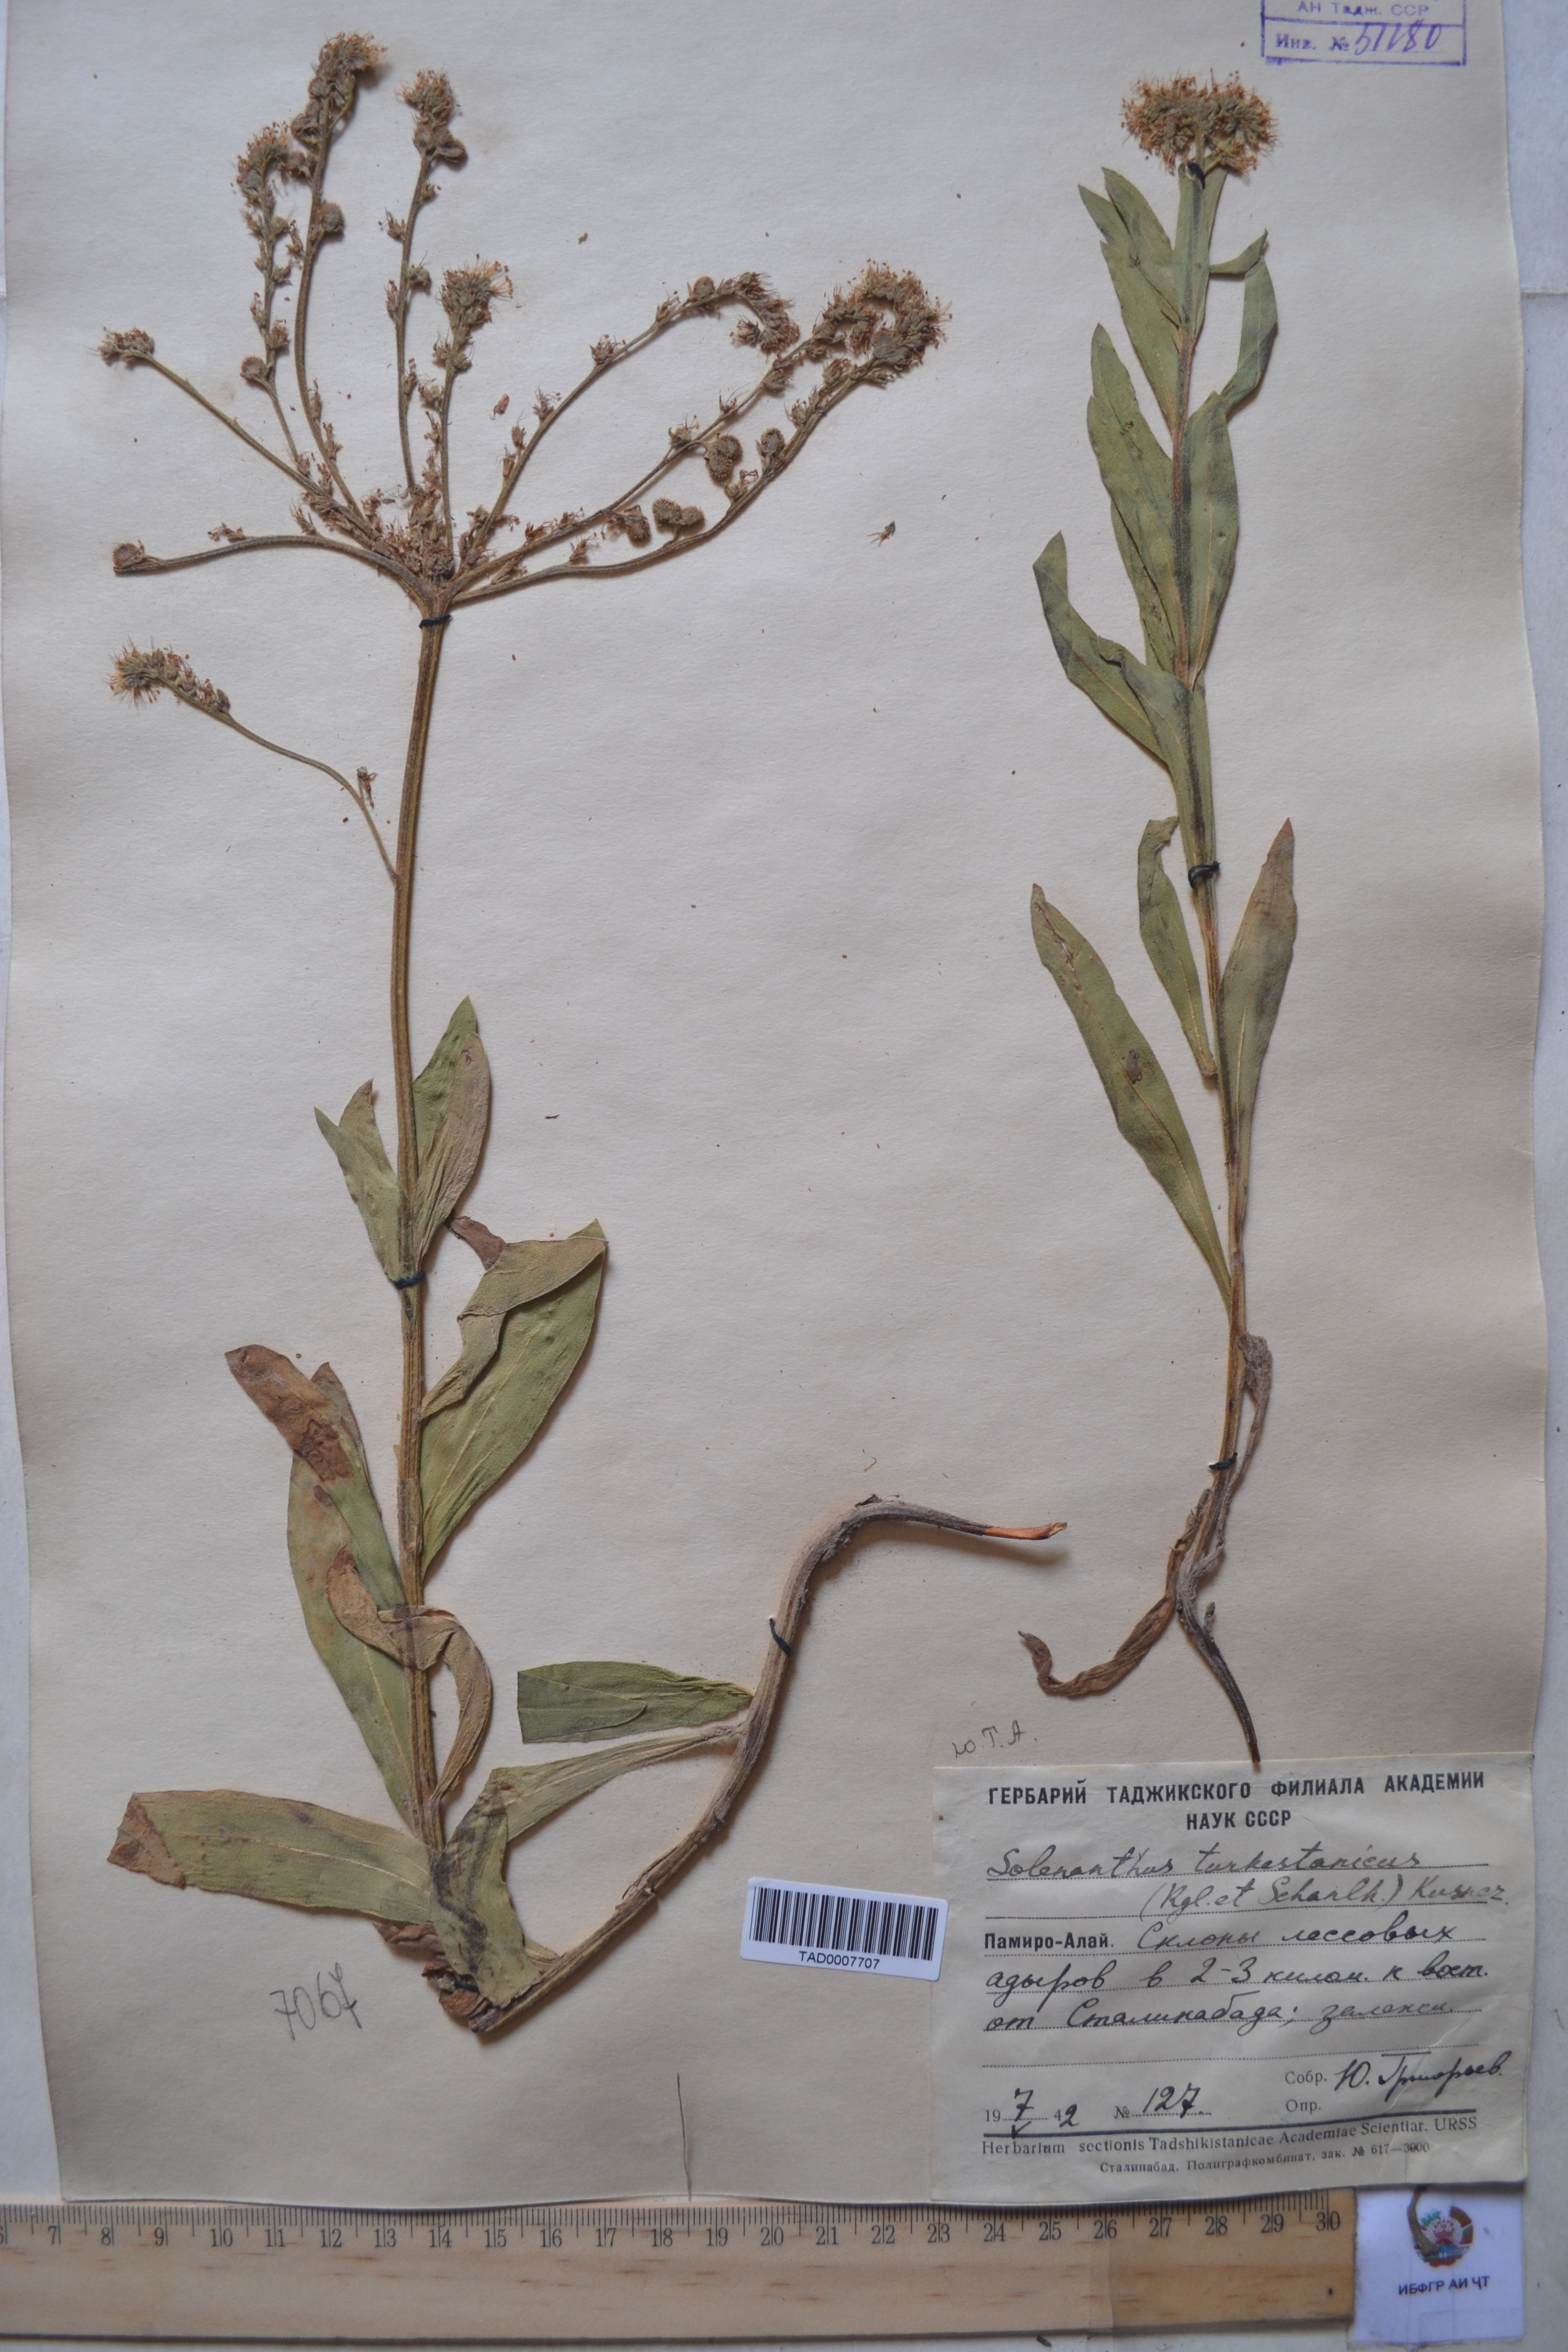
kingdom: Plantae
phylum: Tracheophyta
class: Magnoliopsida
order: Boraginales
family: Boraginaceae
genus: Solenanthus
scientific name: Solenanthus turkestanicus
